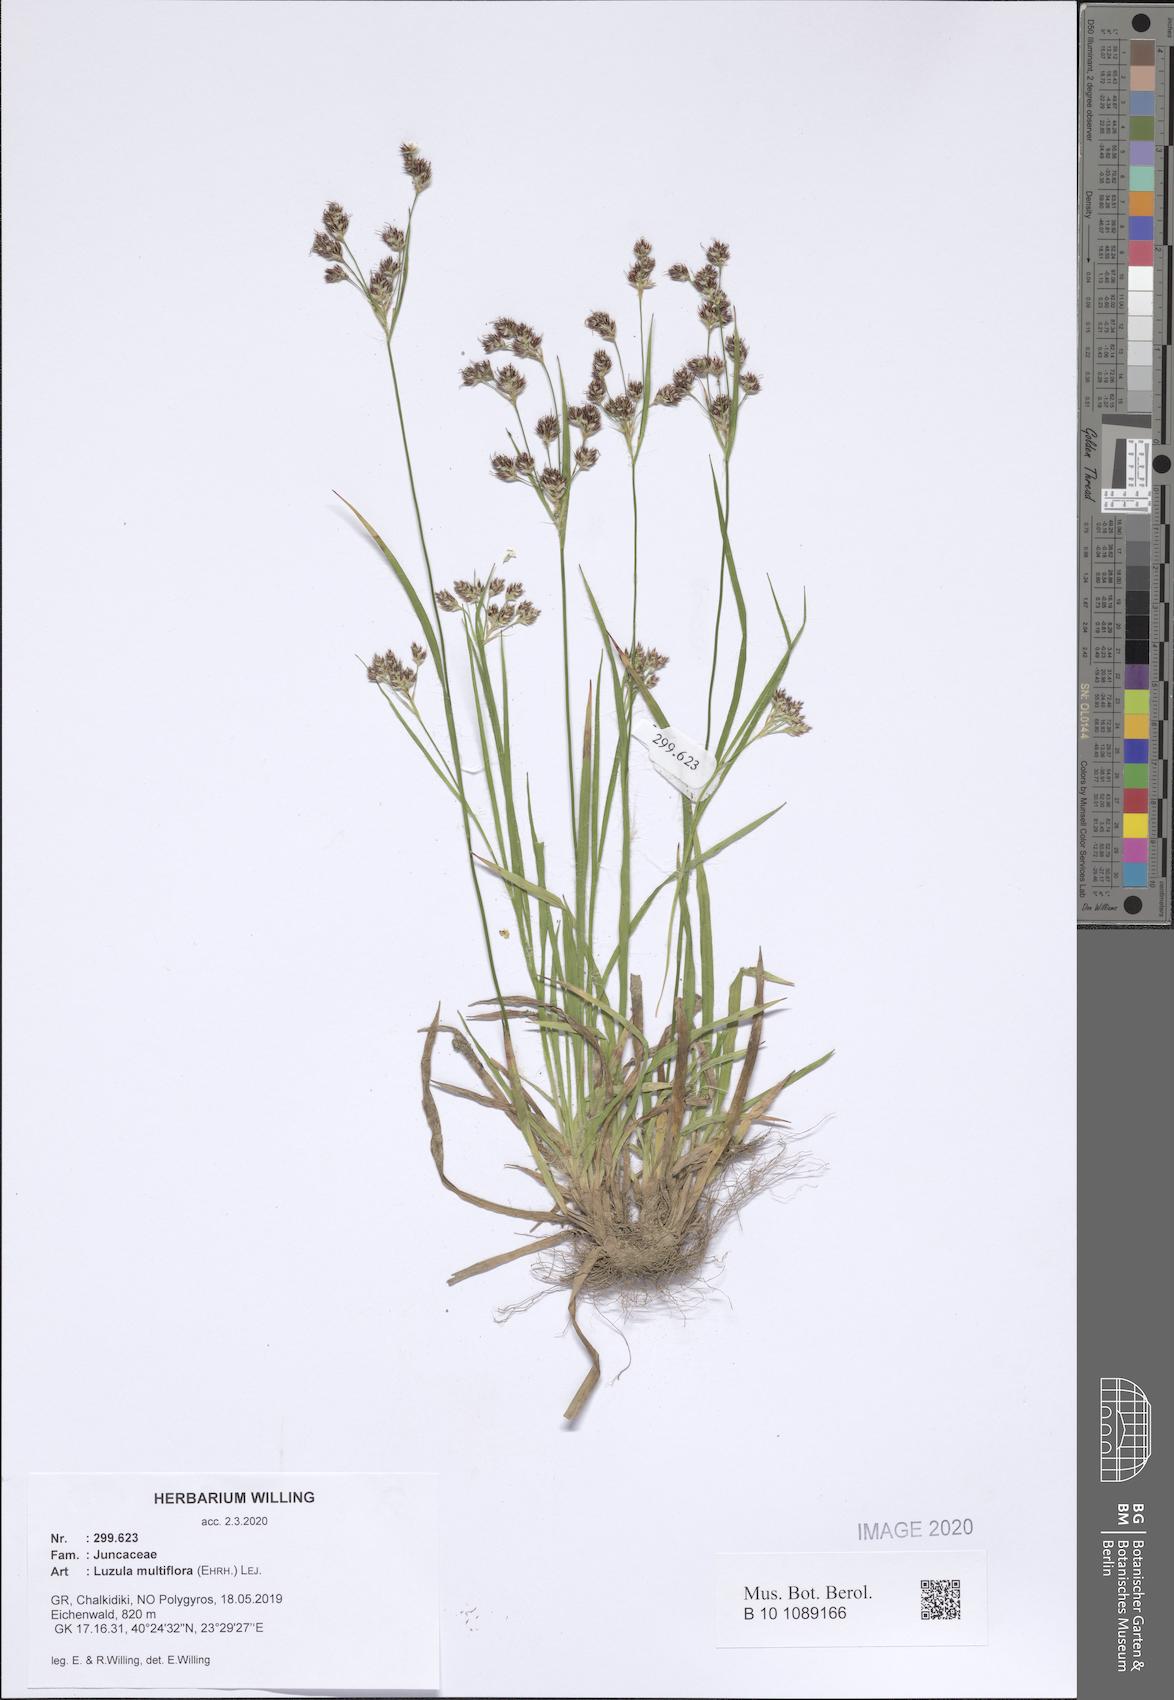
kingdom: Plantae
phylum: Tracheophyta
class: Liliopsida
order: Poales
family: Juncaceae
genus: Luzula
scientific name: Luzula multiflora
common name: Heath wood-rush
